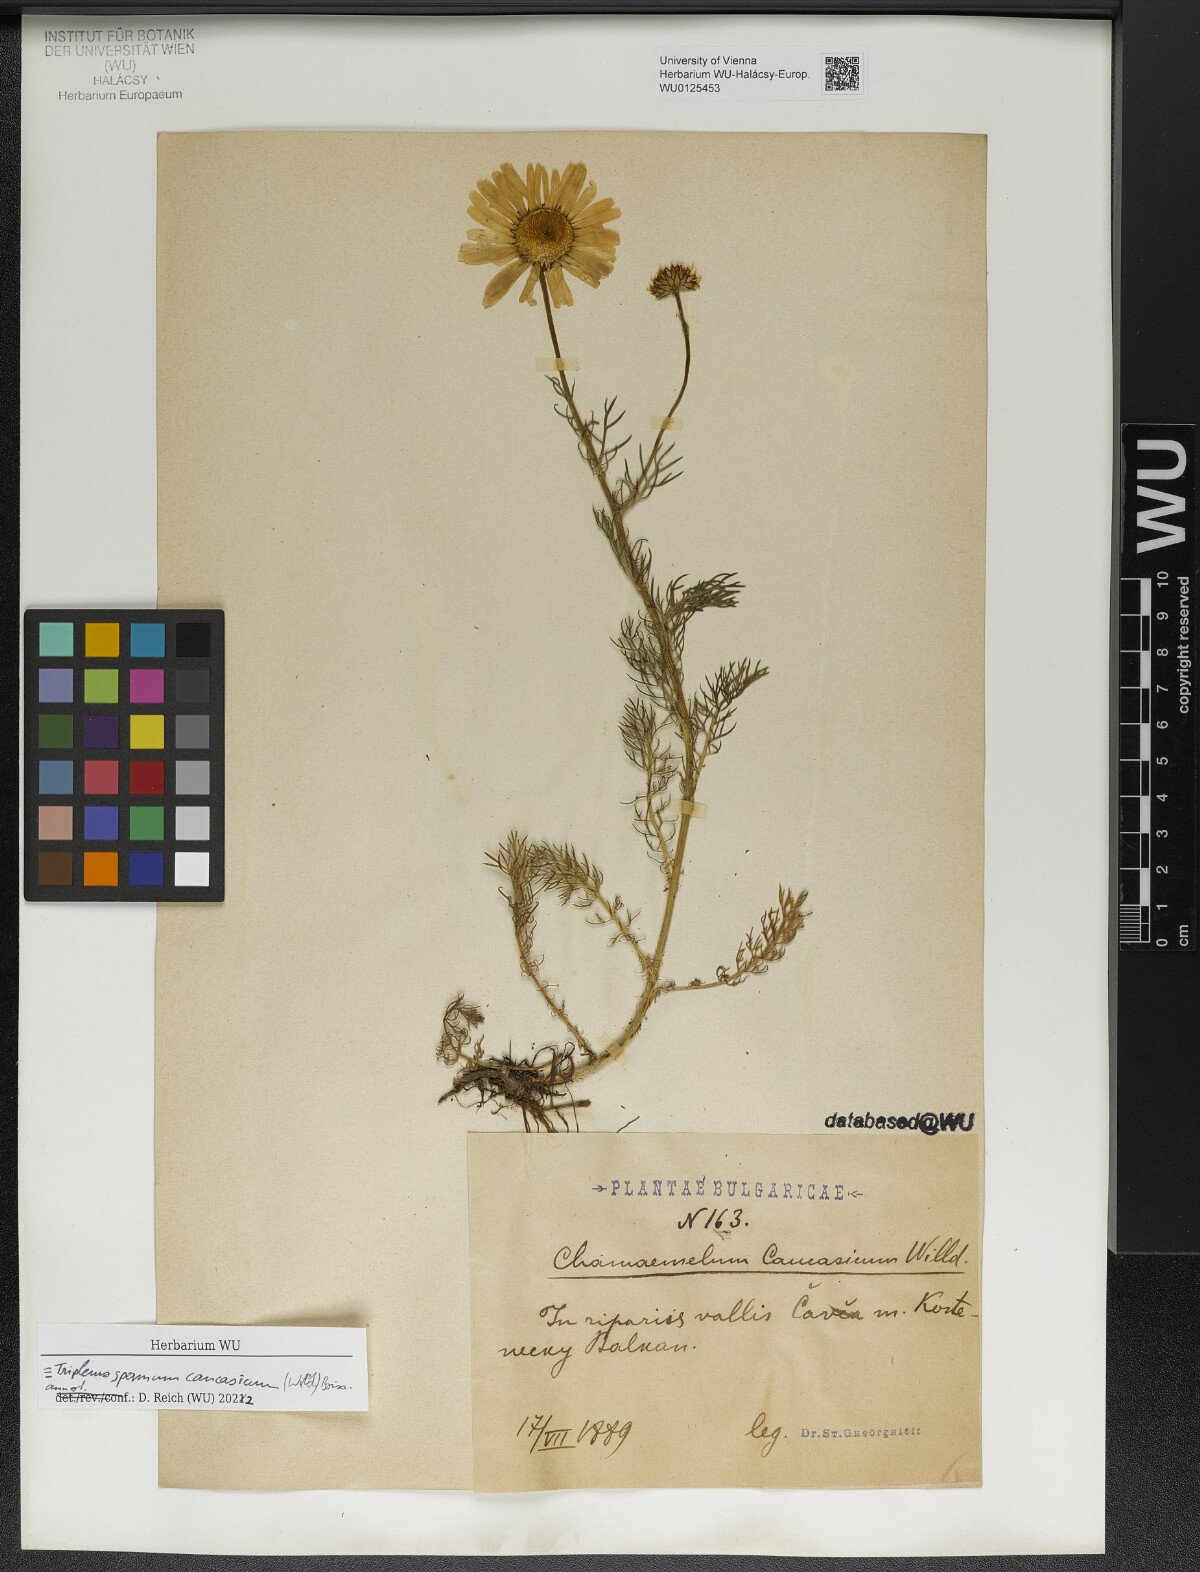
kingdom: Plantae
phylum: Tracheophyta
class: Magnoliopsida
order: Asterales
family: Asteraceae
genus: Tripleurospermum
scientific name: Tripleurospermum caucasicum
